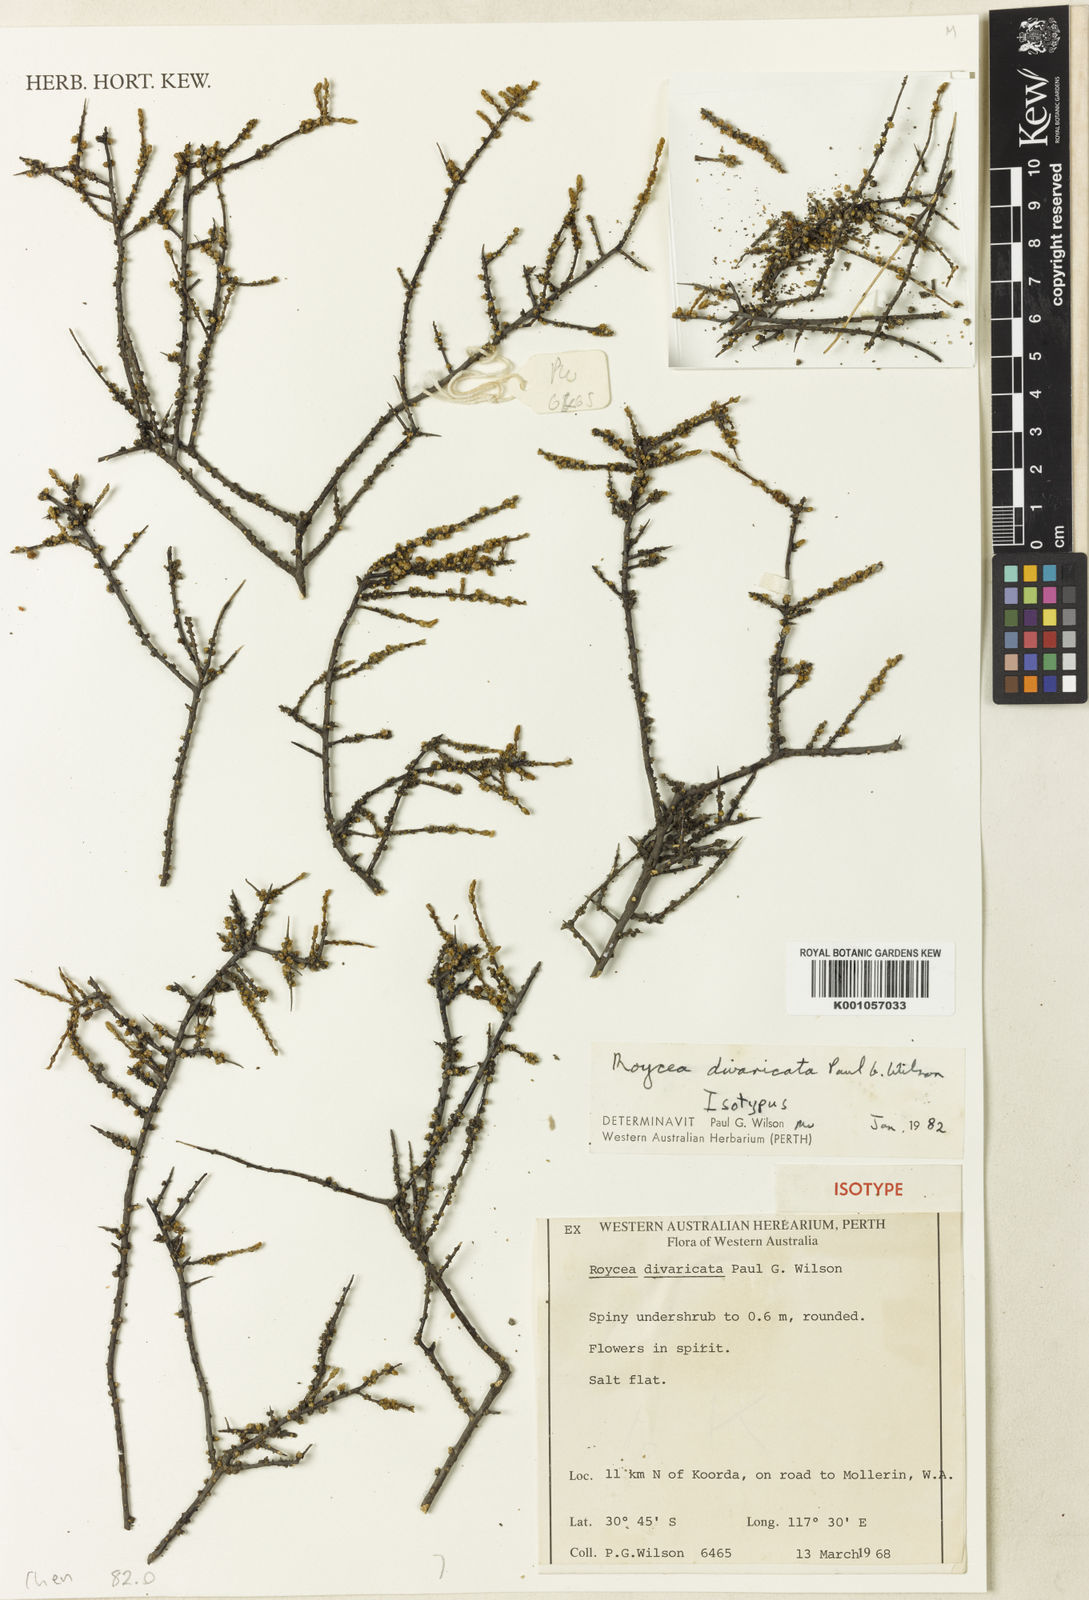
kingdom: Plantae
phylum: Tracheophyta
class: Magnoliopsida
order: Caryophyllales
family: Amaranthaceae
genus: Roycea
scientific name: Roycea divaricata
